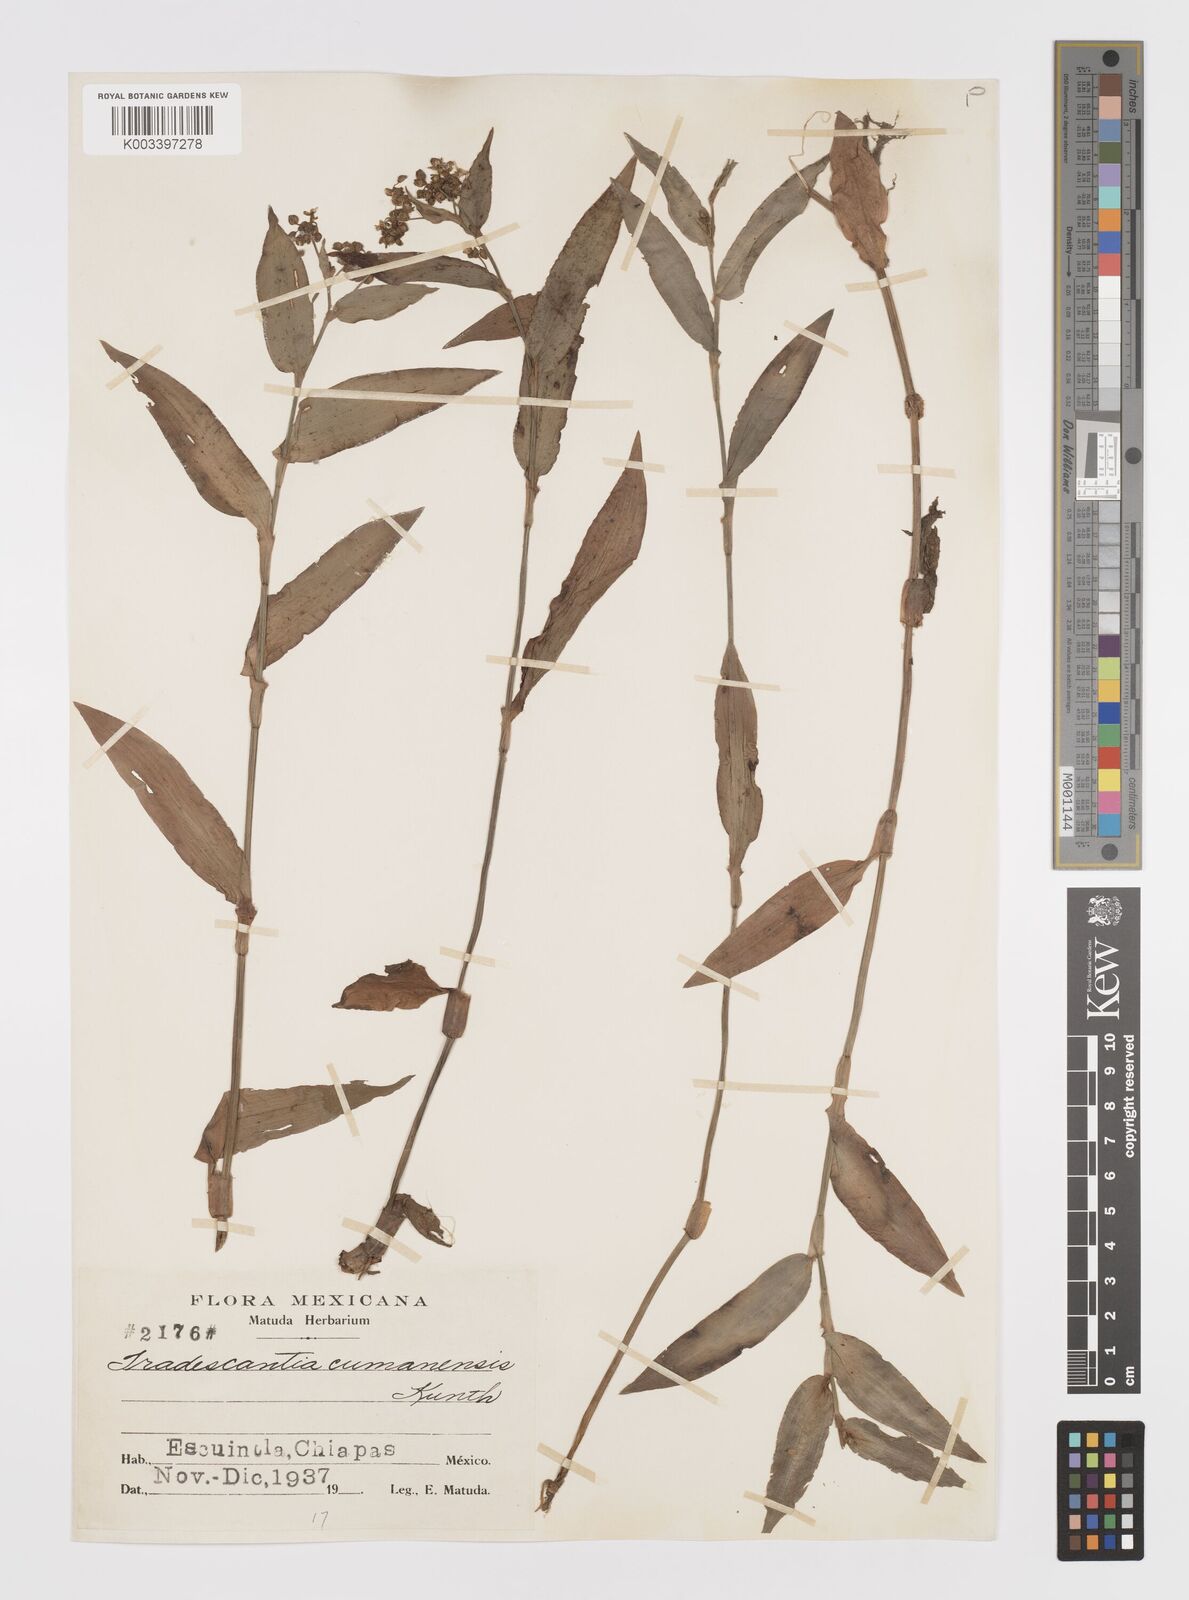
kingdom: Plantae
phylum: Tracheophyta
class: Liliopsida
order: Commelinales
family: Commelinaceae
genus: Callisia
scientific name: Callisia serrulata
